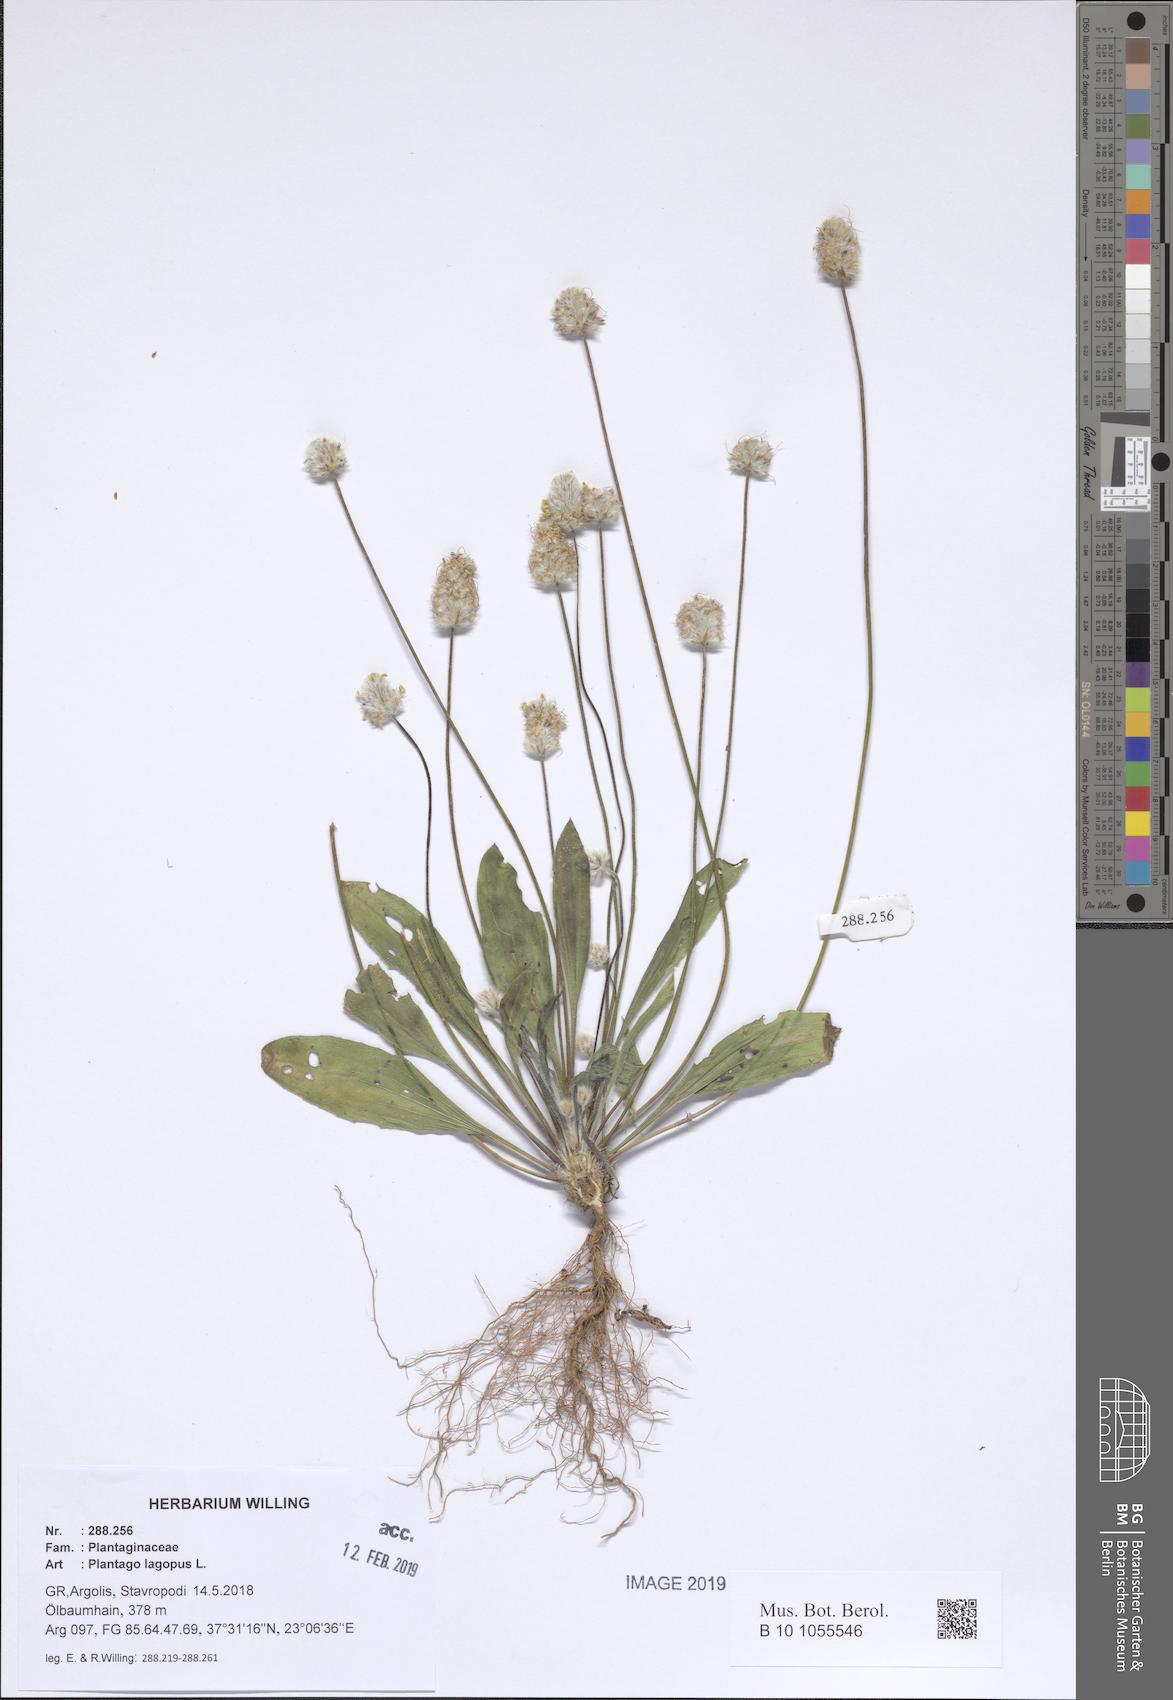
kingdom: Plantae
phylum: Tracheophyta
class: Magnoliopsida
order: Lamiales
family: Plantaginaceae
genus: Plantago
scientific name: Plantago lagopus
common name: Hare-foot plantain
